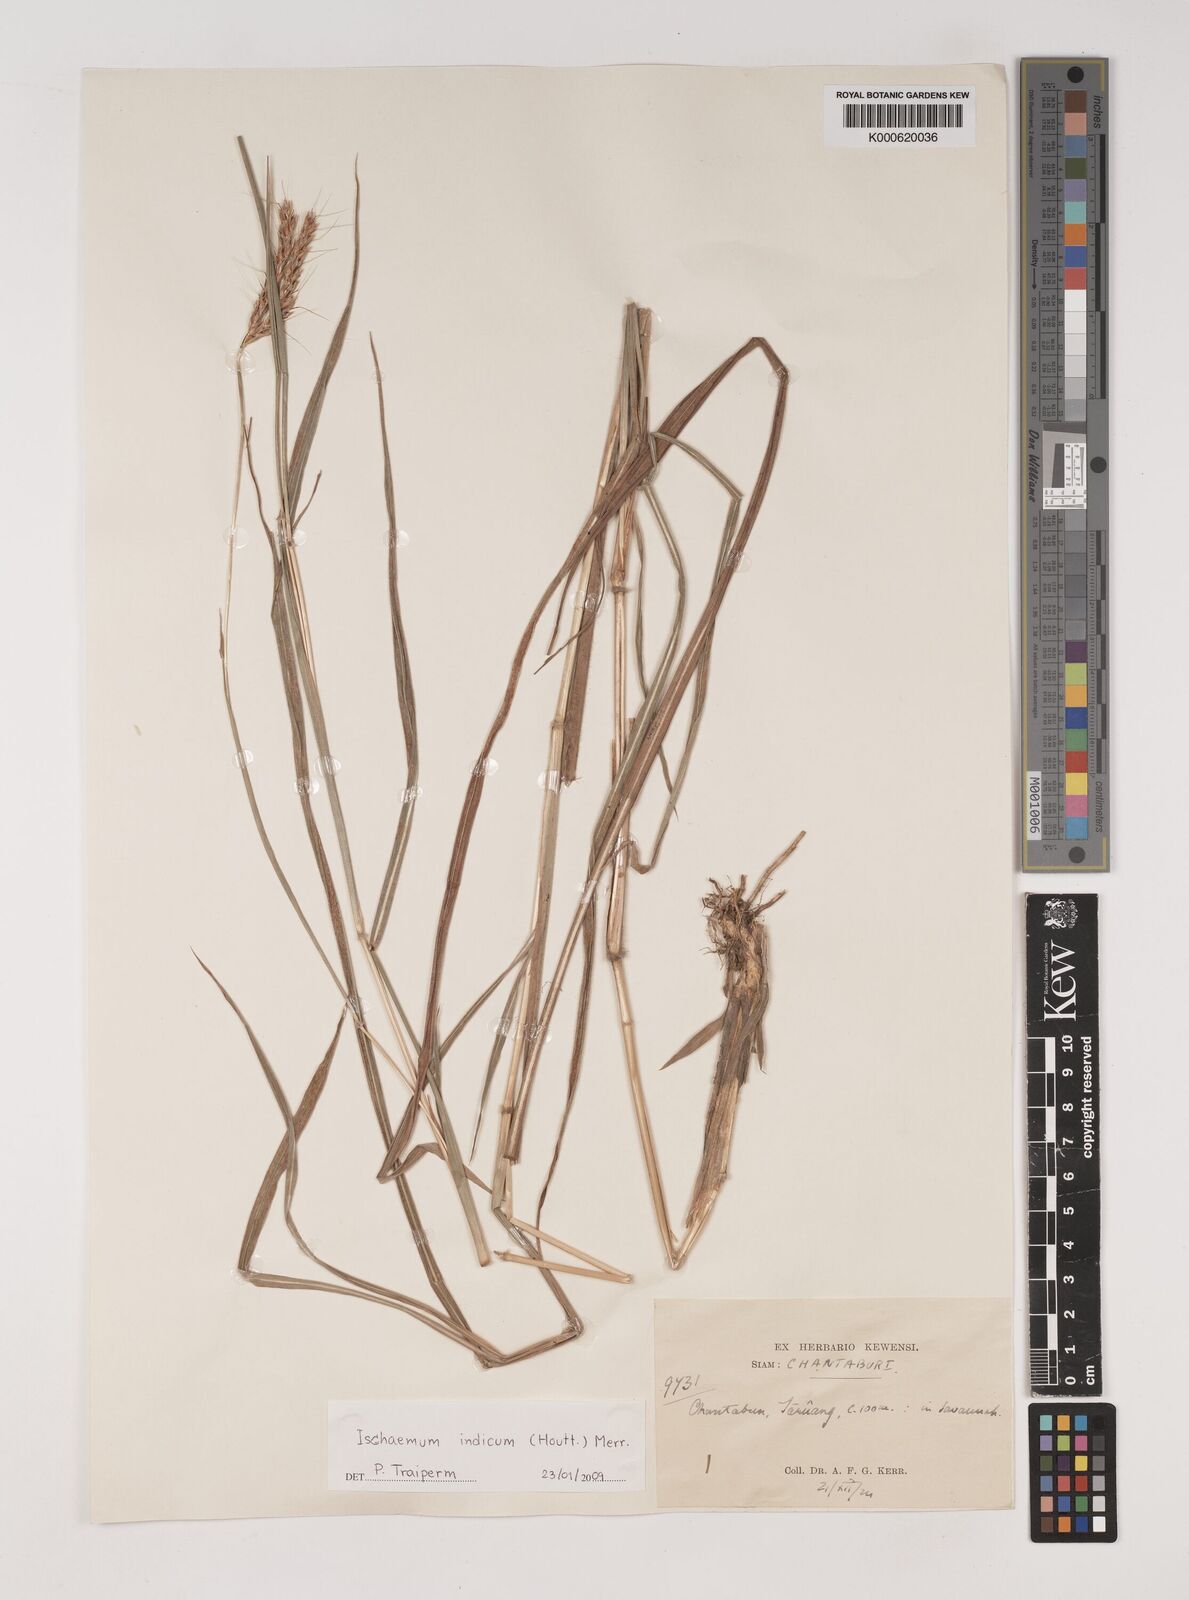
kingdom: Plantae
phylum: Tracheophyta
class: Liliopsida
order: Poales
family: Poaceae
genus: Polytrias
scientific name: Polytrias indica
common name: Indian murainagrass
